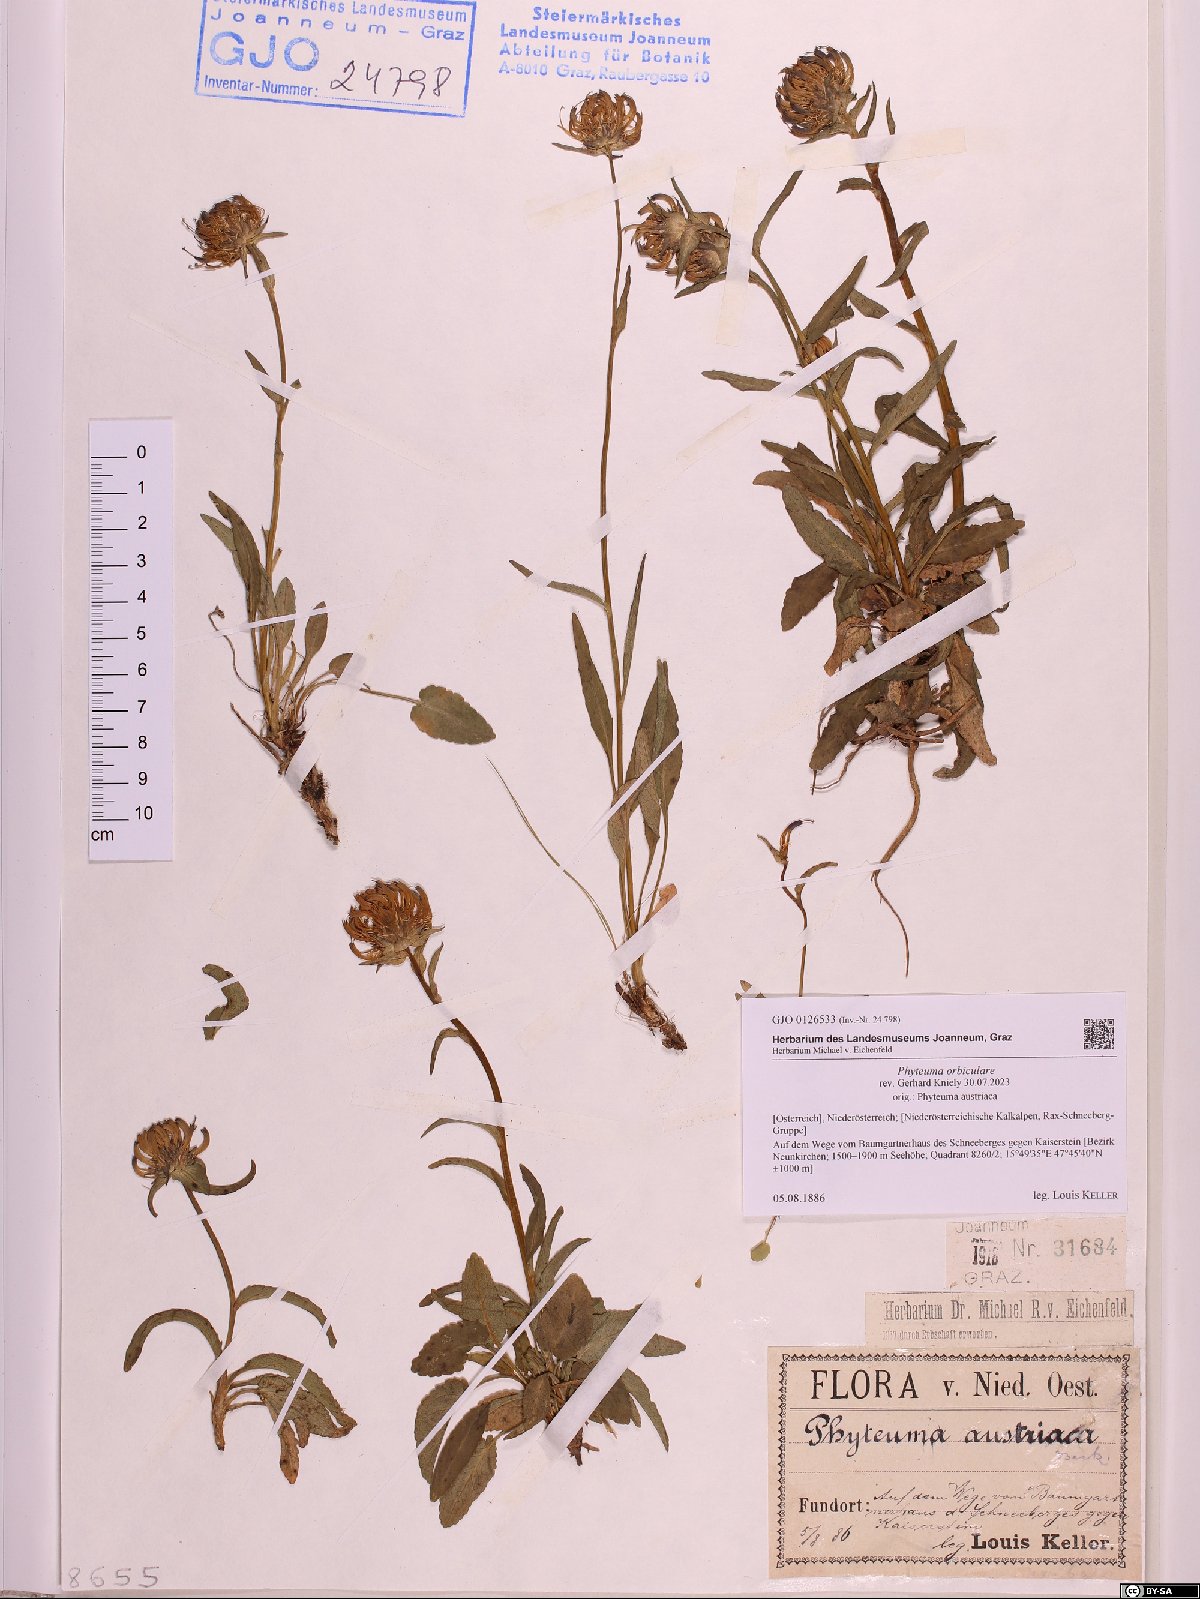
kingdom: Plantae
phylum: Tracheophyta
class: Magnoliopsida
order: Asterales
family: Campanulaceae
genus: Phyteuma
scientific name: Phyteuma orbiculare
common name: Round-headed rampion
